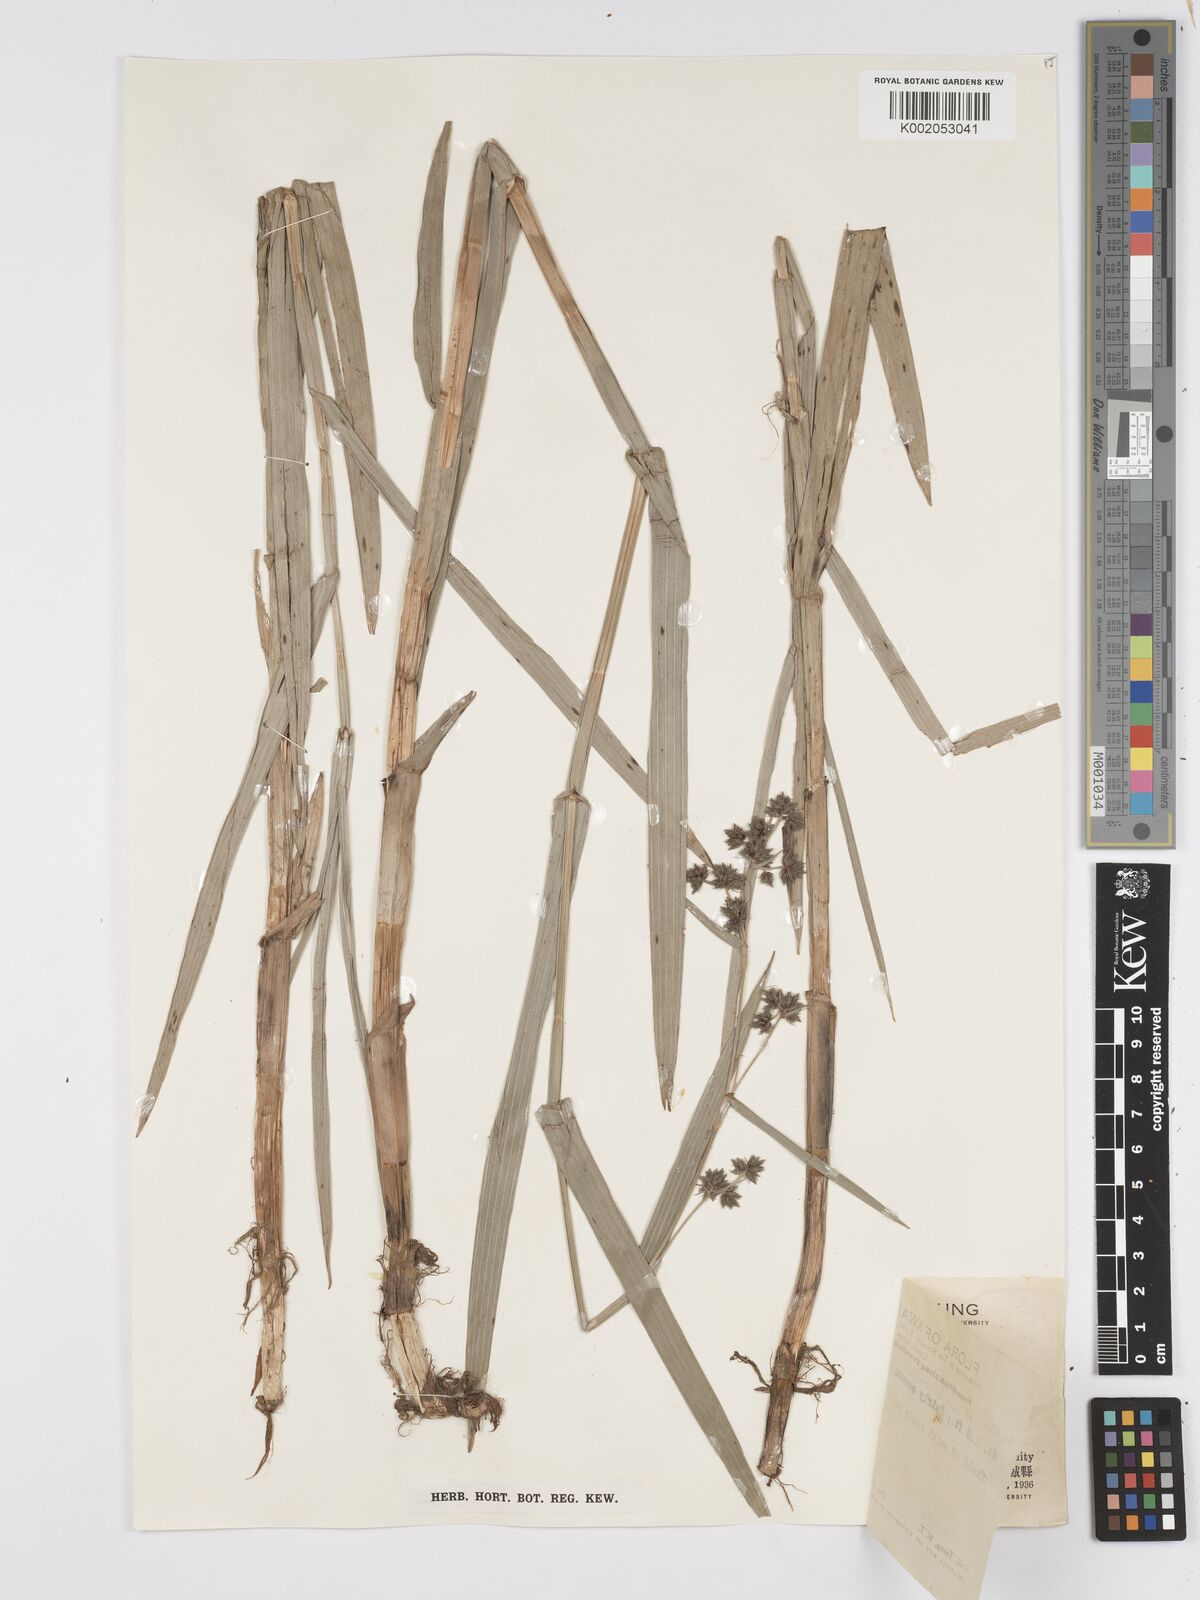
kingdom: Plantae
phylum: Tracheophyta
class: Liliopsida
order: Poales
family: Cyperaceae
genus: Fuirena
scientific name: Fuirena umbellata
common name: Yefen
